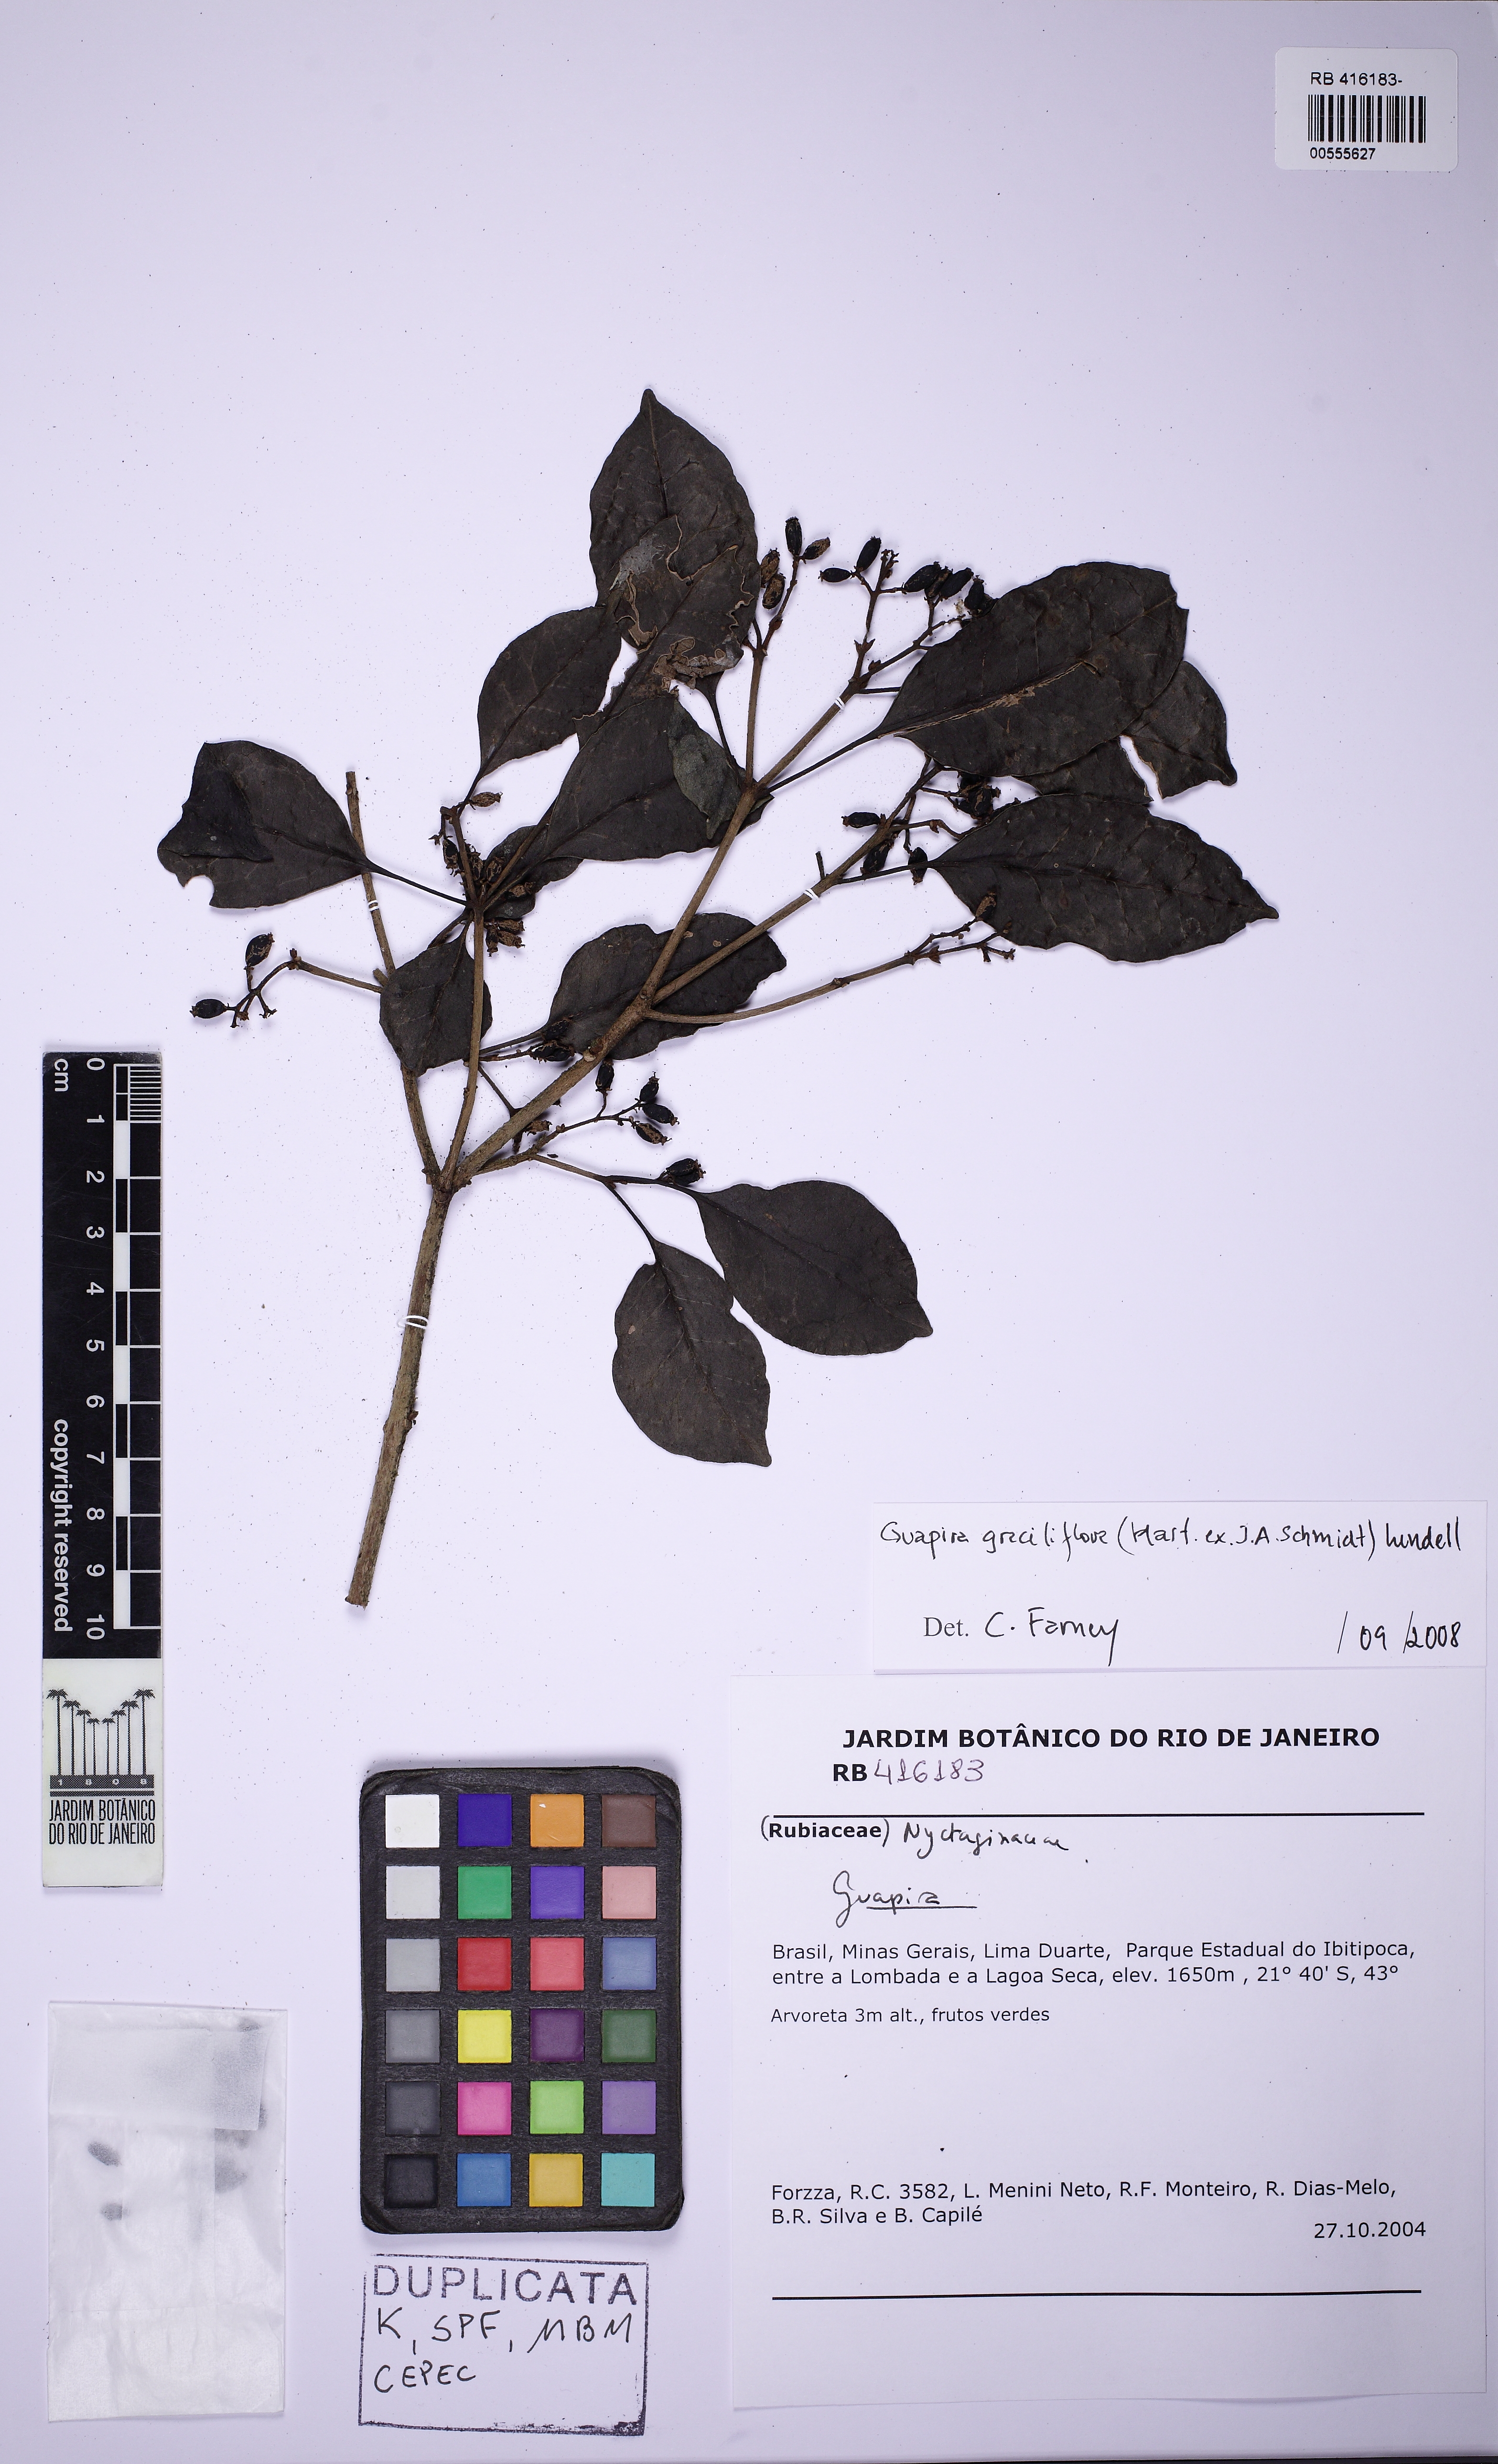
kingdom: Plantae
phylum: Tracheophyta
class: Magnoliopsida
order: Caryophyllales
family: Nyctaginaceae
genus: Guapira
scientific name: Guapira graciliflora
